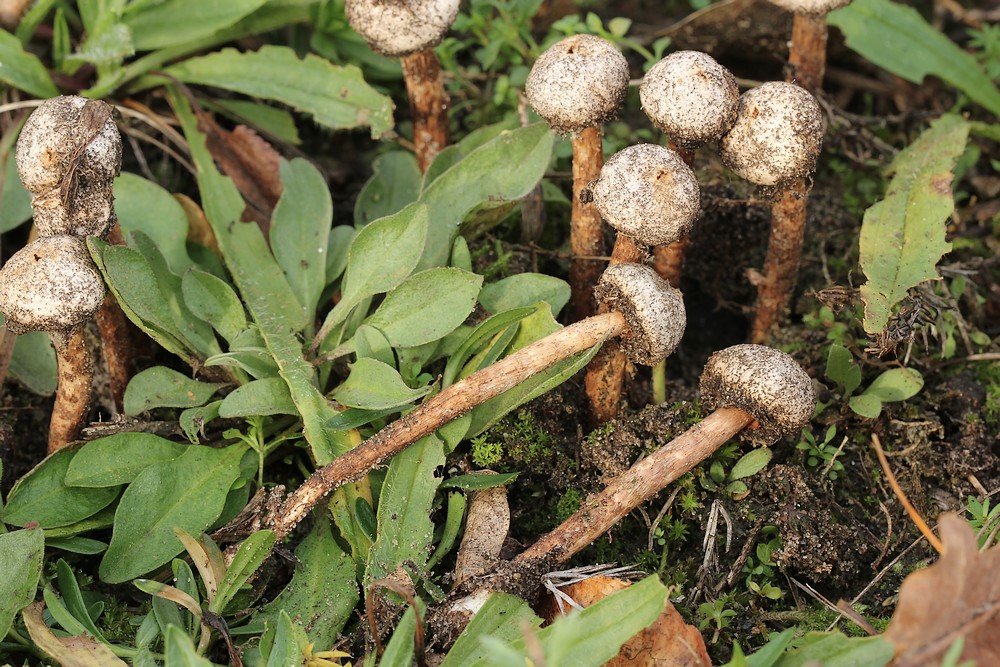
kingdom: Fungi
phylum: Basidiomycota
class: Agaricomycetes
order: Agaricales
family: Agaricaceae
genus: Tulostoma
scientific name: Tulostoma fimbriatum
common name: frynset stilkbovist
